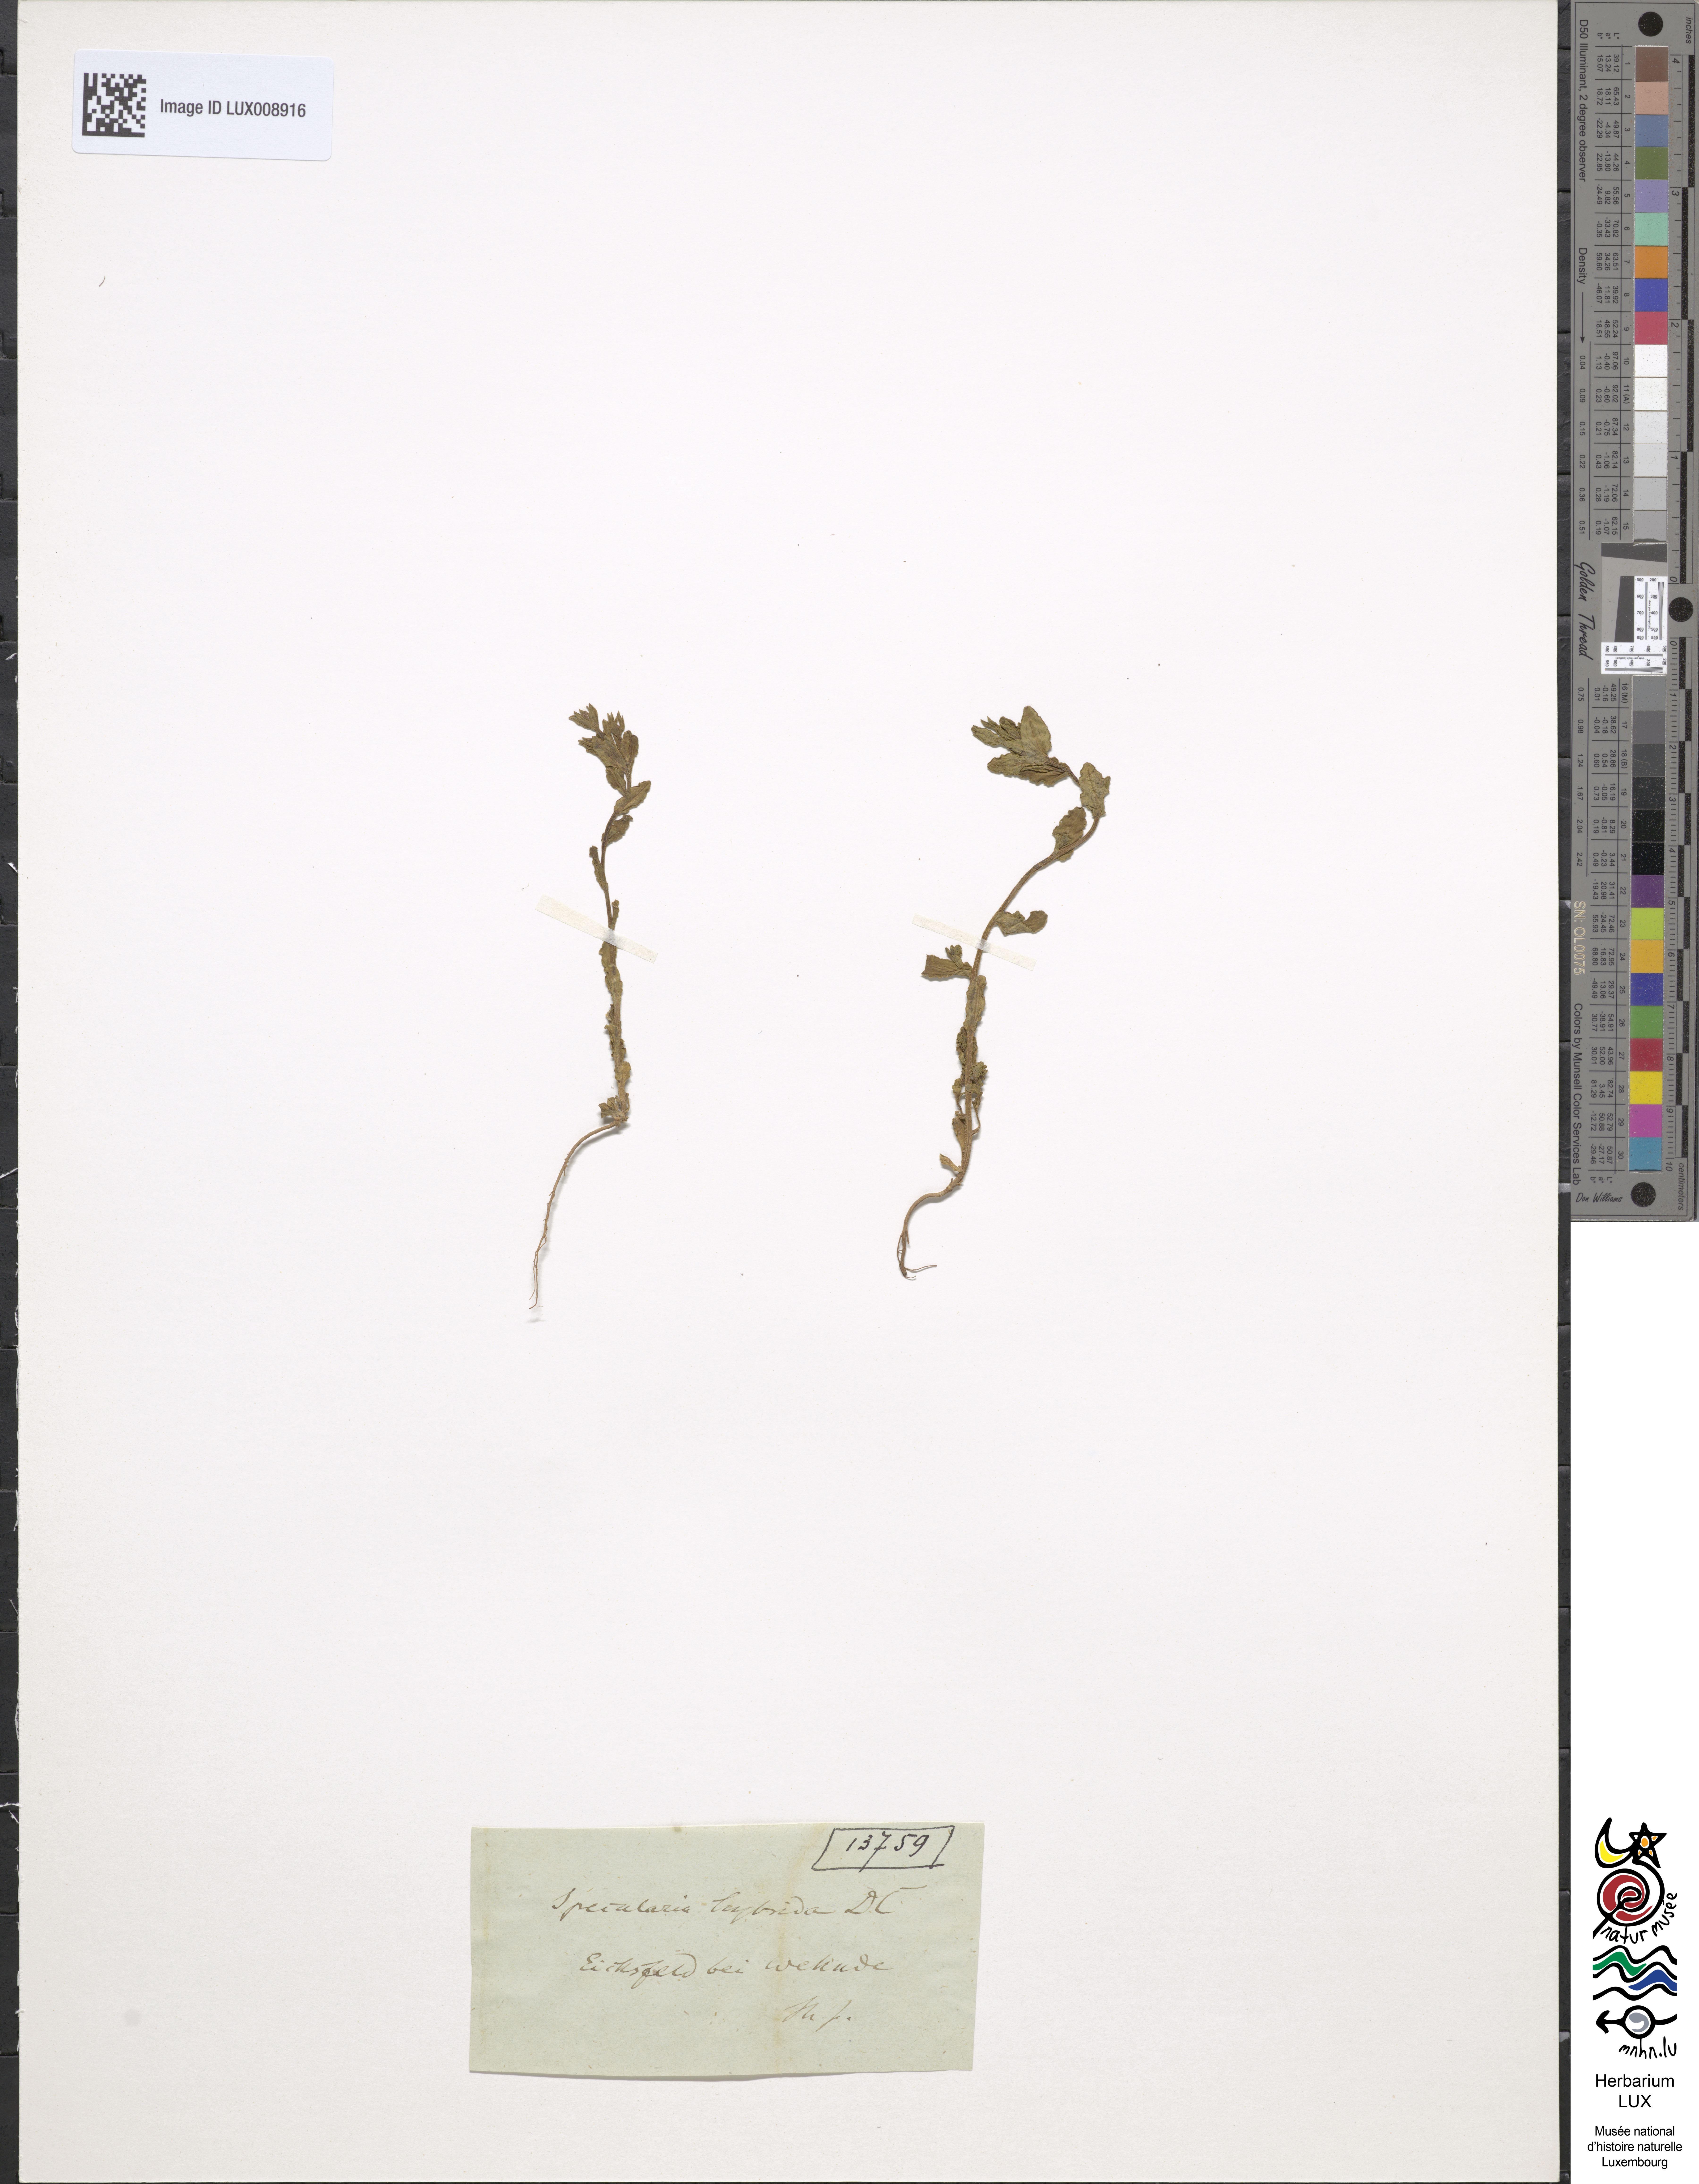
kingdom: Plantae
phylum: Tracheophyta
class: Magnoliopsida
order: Asterales
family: Campanulaceae
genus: Legousia
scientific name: Legousia hybrida
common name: Venus's-looking-glass
